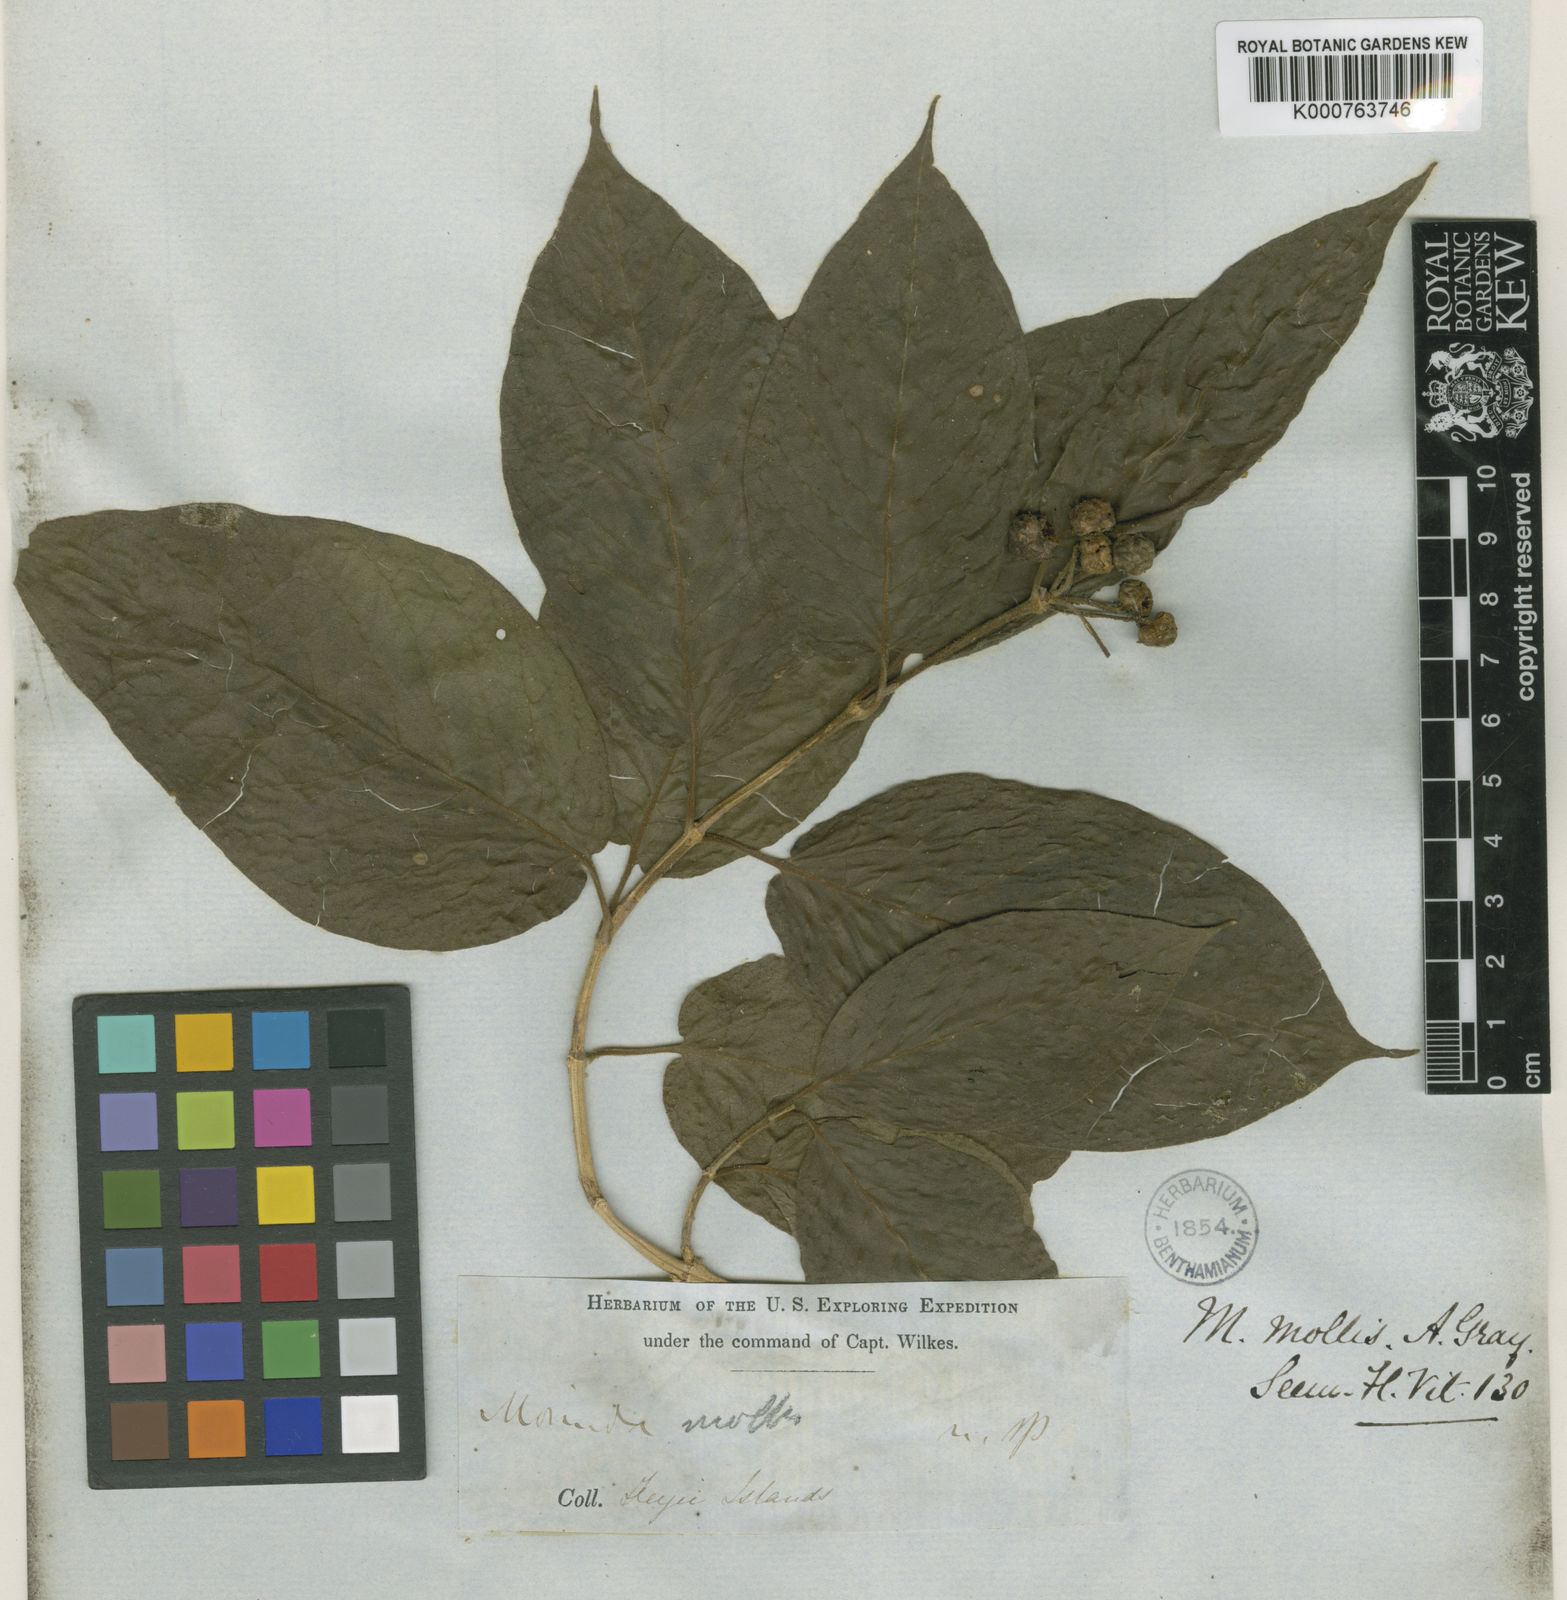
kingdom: Plantae
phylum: Tracheophyta
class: Magnoliopsida
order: Gentianales
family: Rubiaceae
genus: Gynochthodes
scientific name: Gynochthodes mollis
